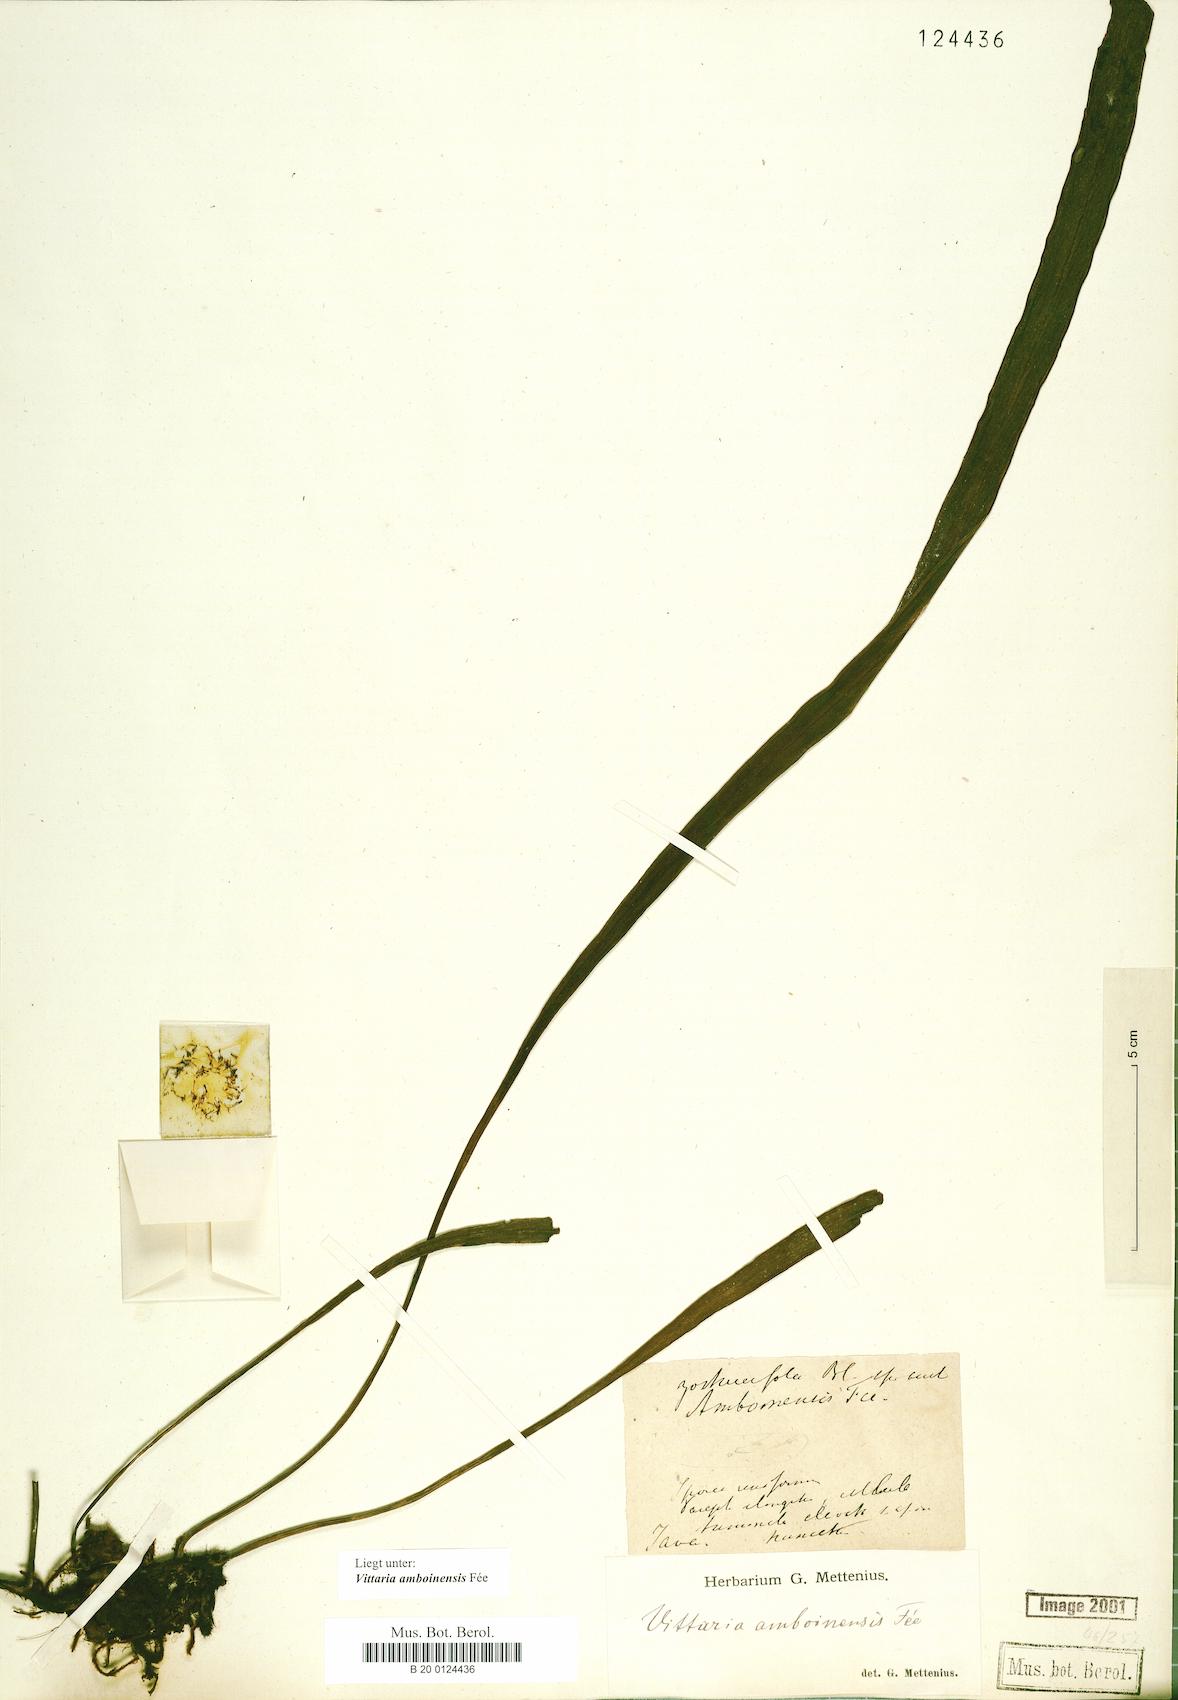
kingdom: Plantae
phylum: Tracheophyta
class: Polypodiopsida
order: Polypodiales
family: Pteridaceae
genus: Haplopteris
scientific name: Haplopteris amboinensis
